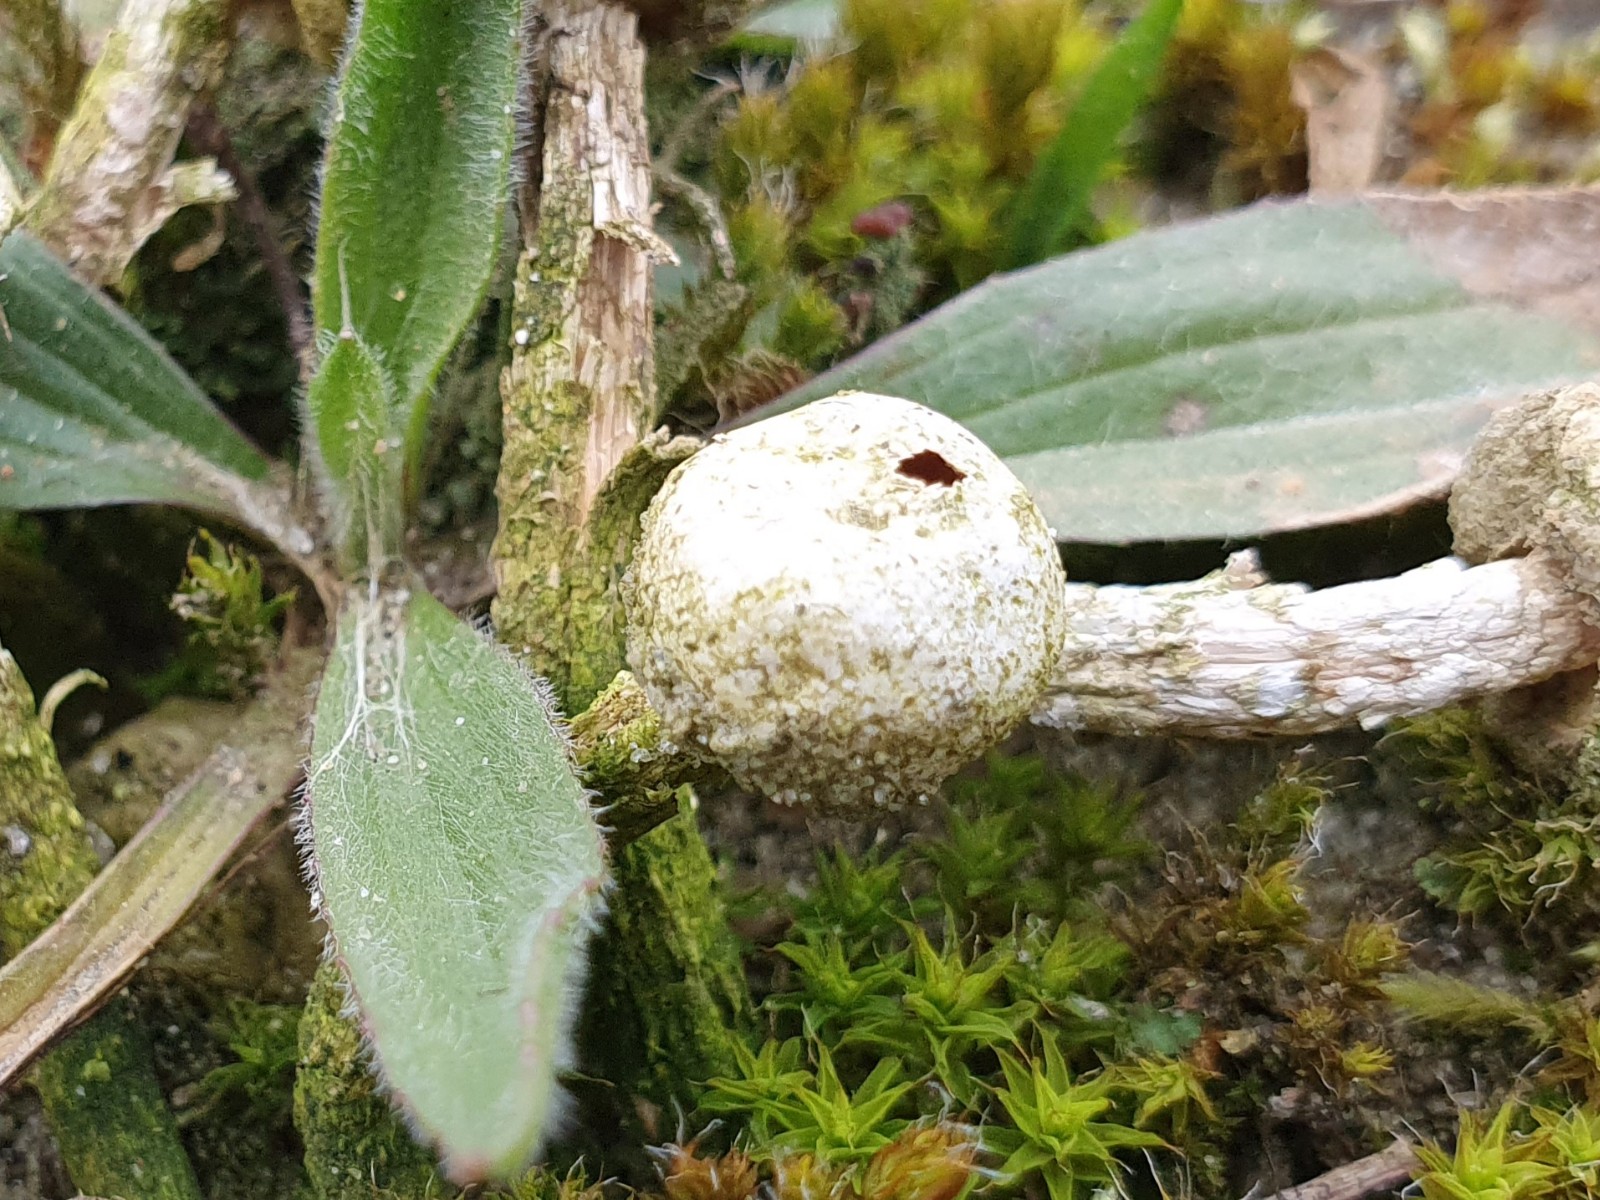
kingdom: Fungi
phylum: Basidiomycota
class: Agaricomycetes
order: Agaricales
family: Agaricaceae
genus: Tulostoma
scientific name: Tulostoma fimbriatum
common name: frynset stilkbovist
